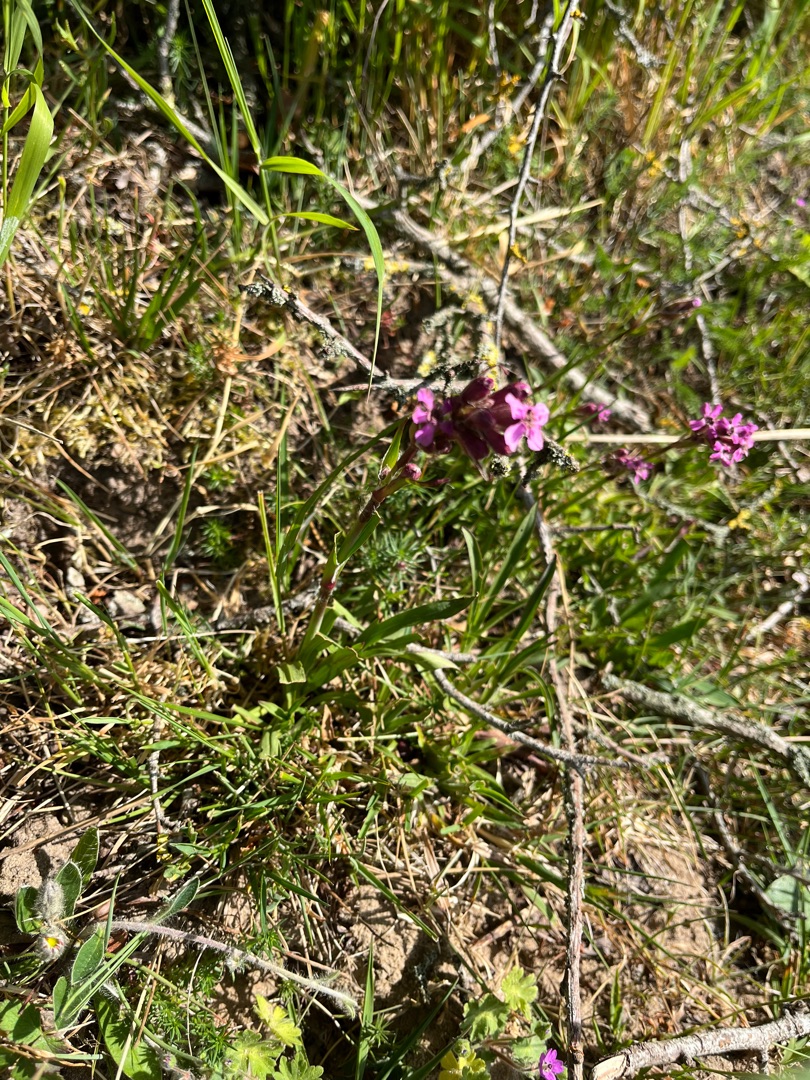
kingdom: Plantae
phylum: Tracheophyta
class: Magnoliopsida
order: Caryophyllales
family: Caryophyllaceae
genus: Viscaria
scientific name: Viscaria vulgaris
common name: Tjærenellike
